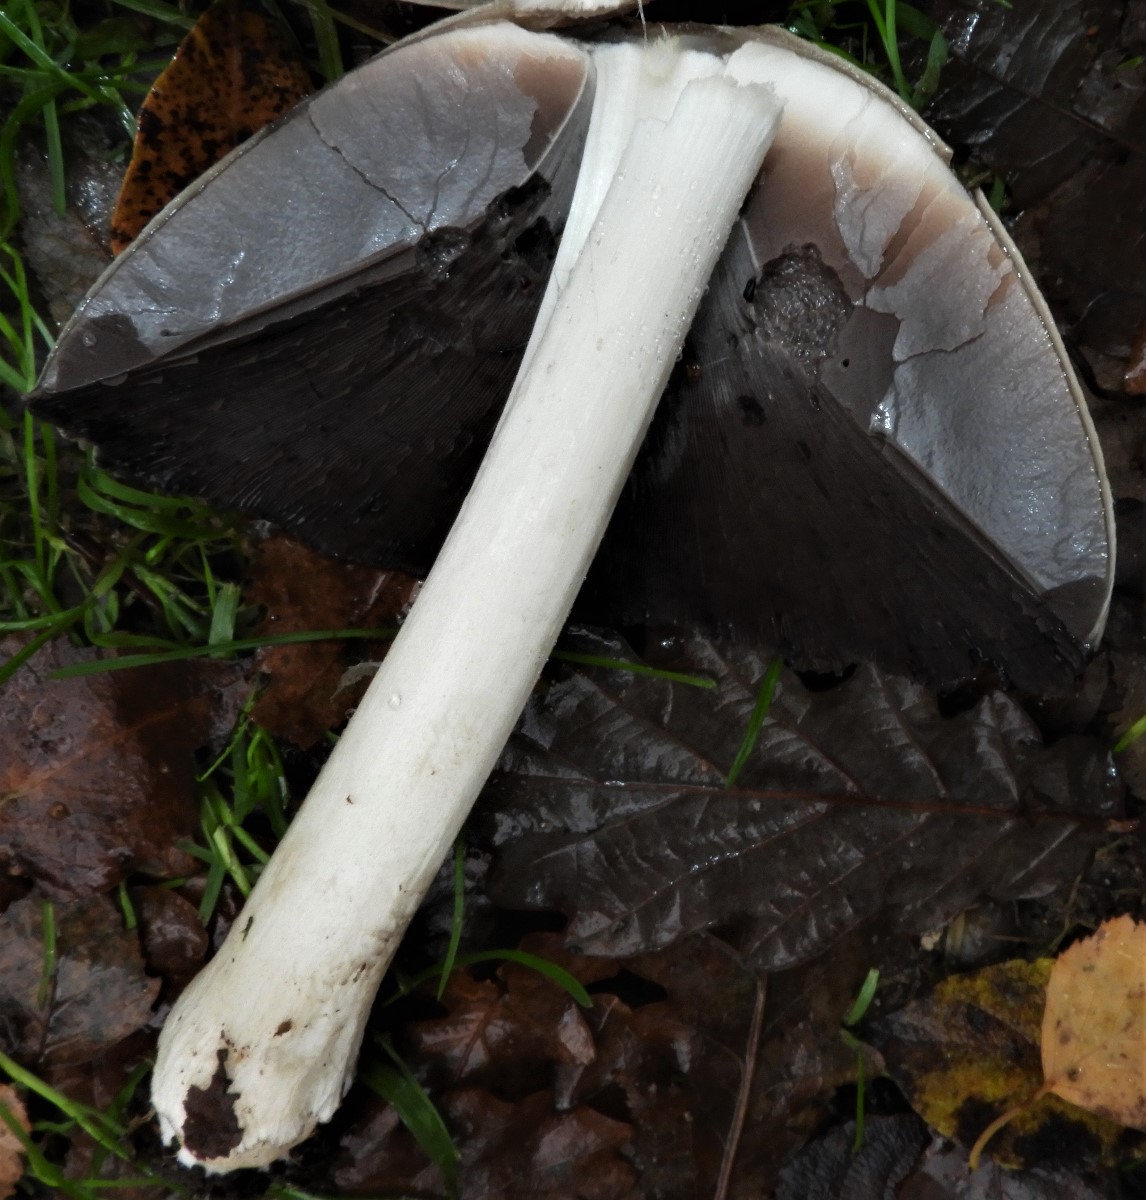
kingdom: Fungi
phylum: Basidiomycota
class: Agaricomycetes
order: Agaricales
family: Psathyrellaceae
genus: Coprinopsis
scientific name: Coprinopsis atramentaria
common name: almindelig blækhat
